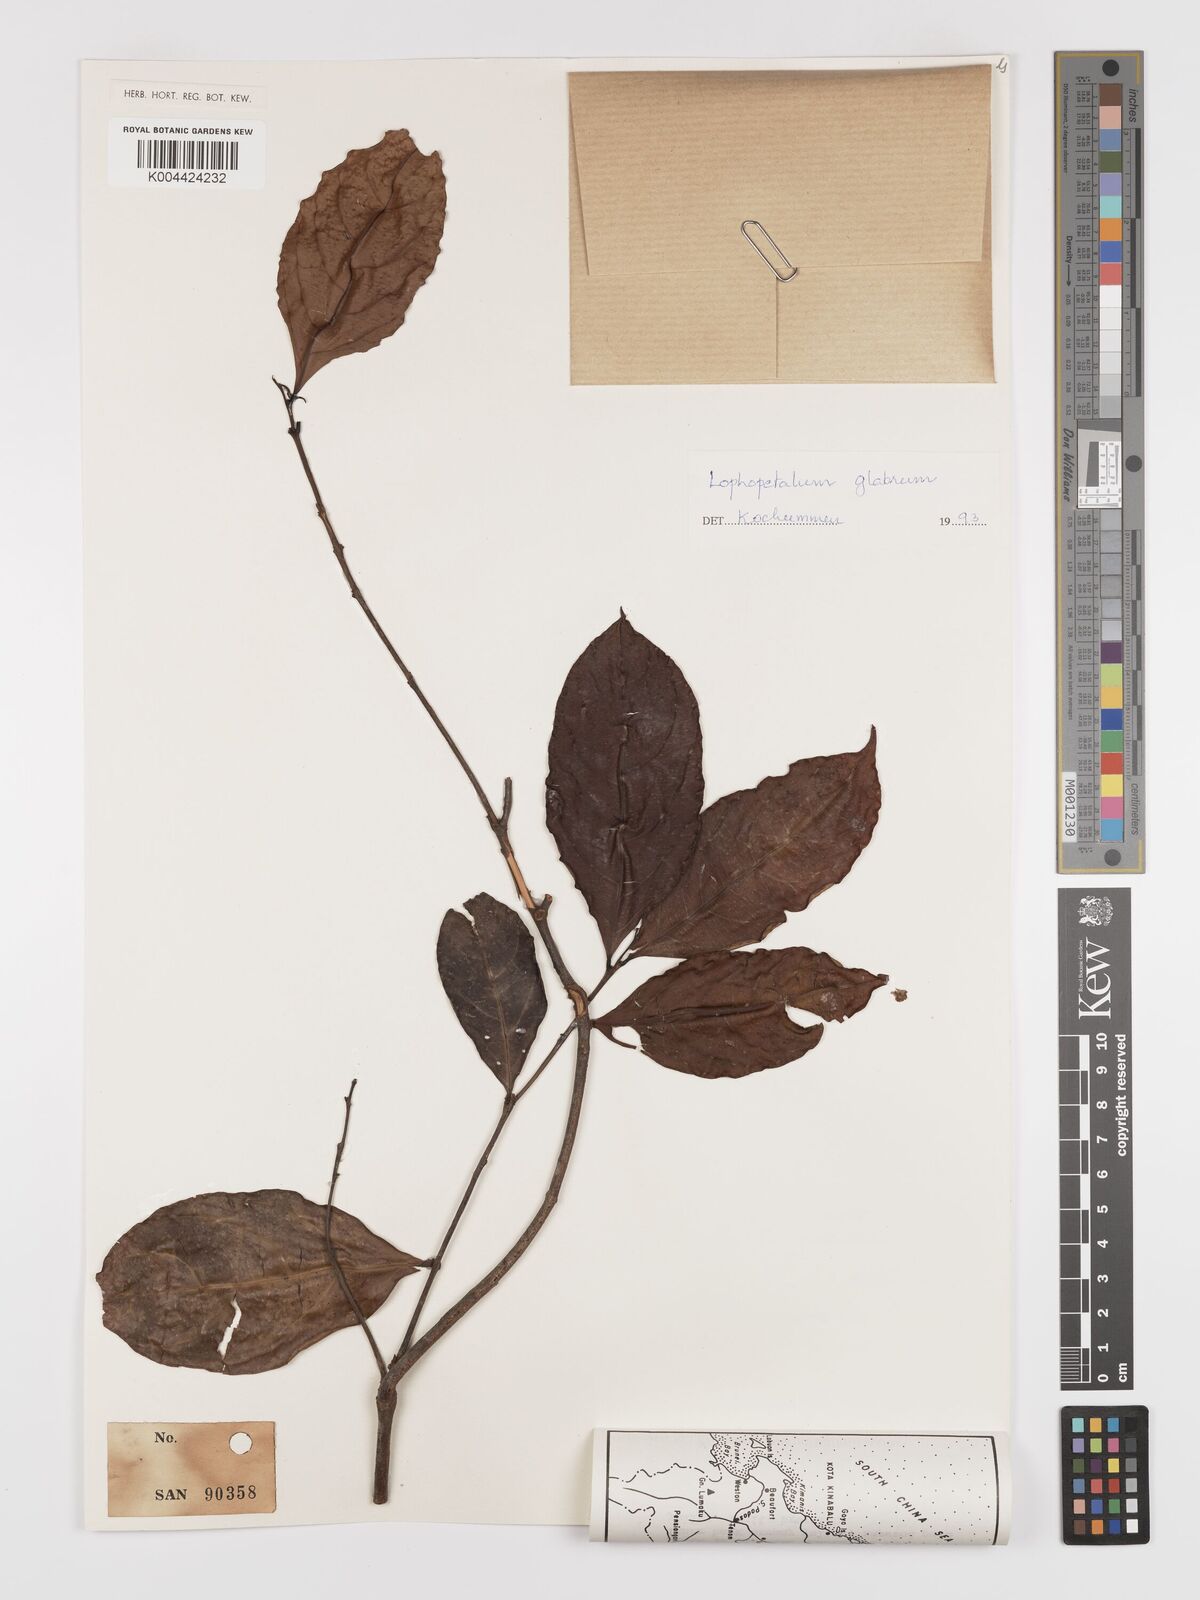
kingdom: Plantae
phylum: Tracheophyta
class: Magnoliopsida
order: Celastrales
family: Celastraceae
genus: Lophopetalum
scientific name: Lophopetalum glabrum
